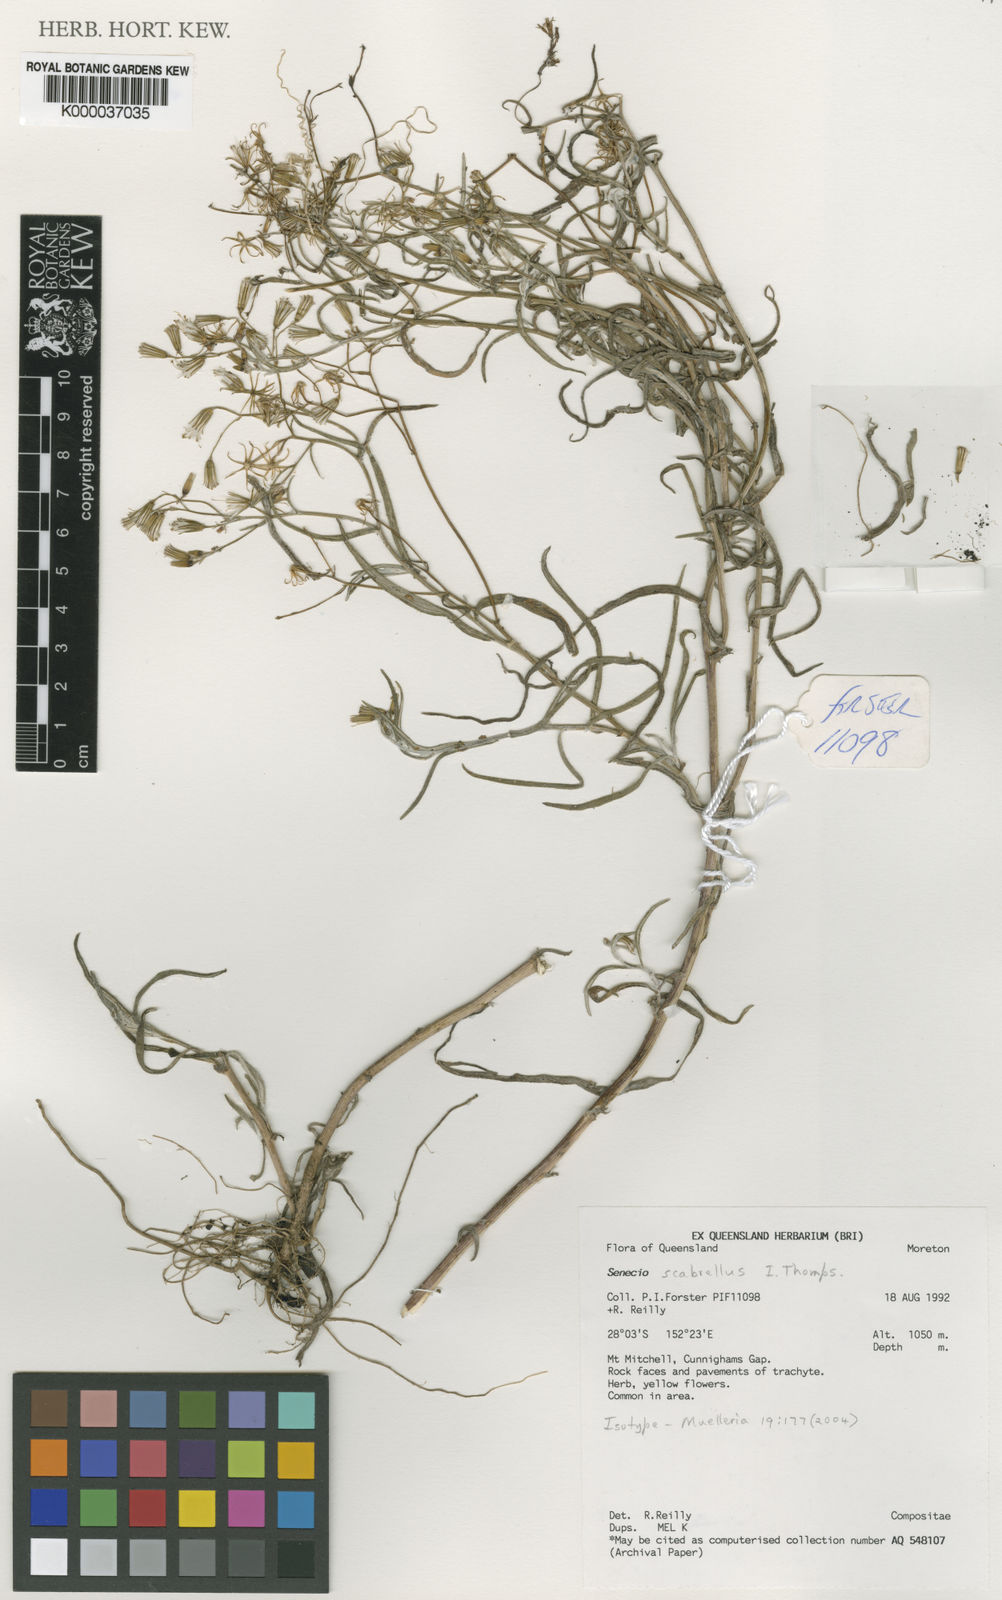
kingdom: Plantae
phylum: Tracheophyta
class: Magnoliopsida
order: Asterales
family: Asteraceae
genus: Senecio
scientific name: Senecio scabrellus
